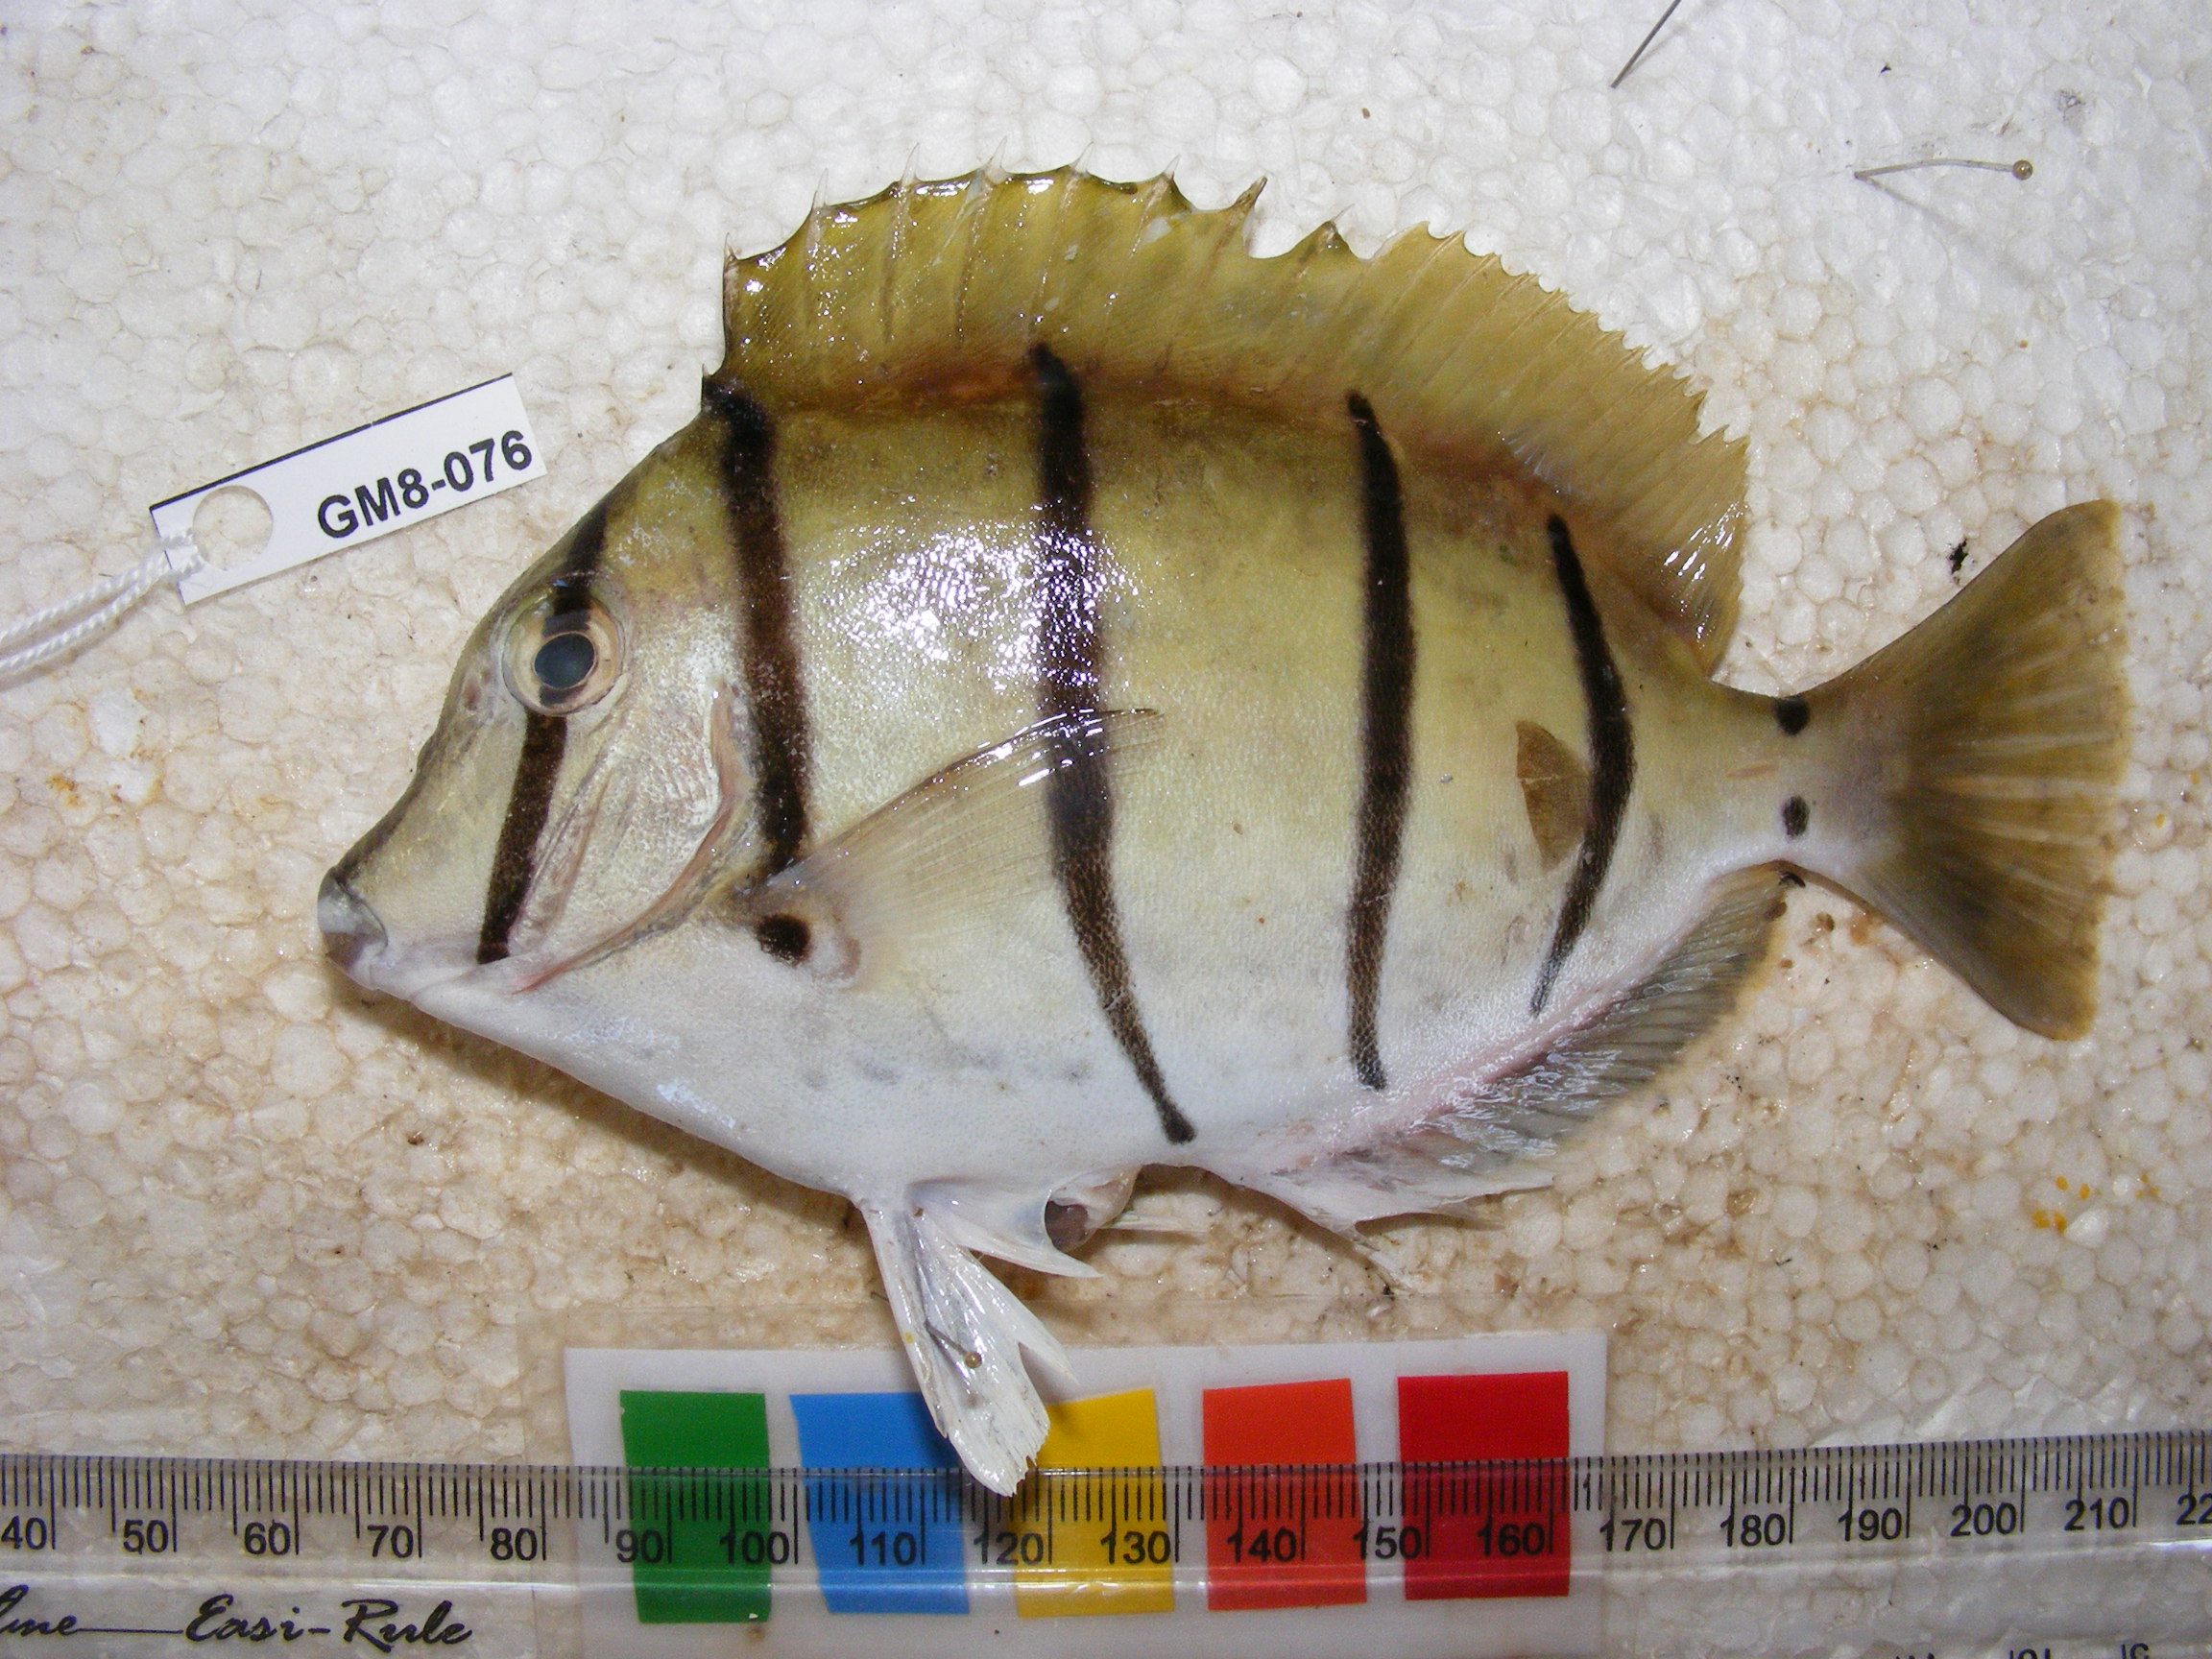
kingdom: Animalia
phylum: Chordata
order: Perciformes
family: Acanthuridae
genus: Acanthurus
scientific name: Acanthurus triostegus
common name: Convict surgeonfish
